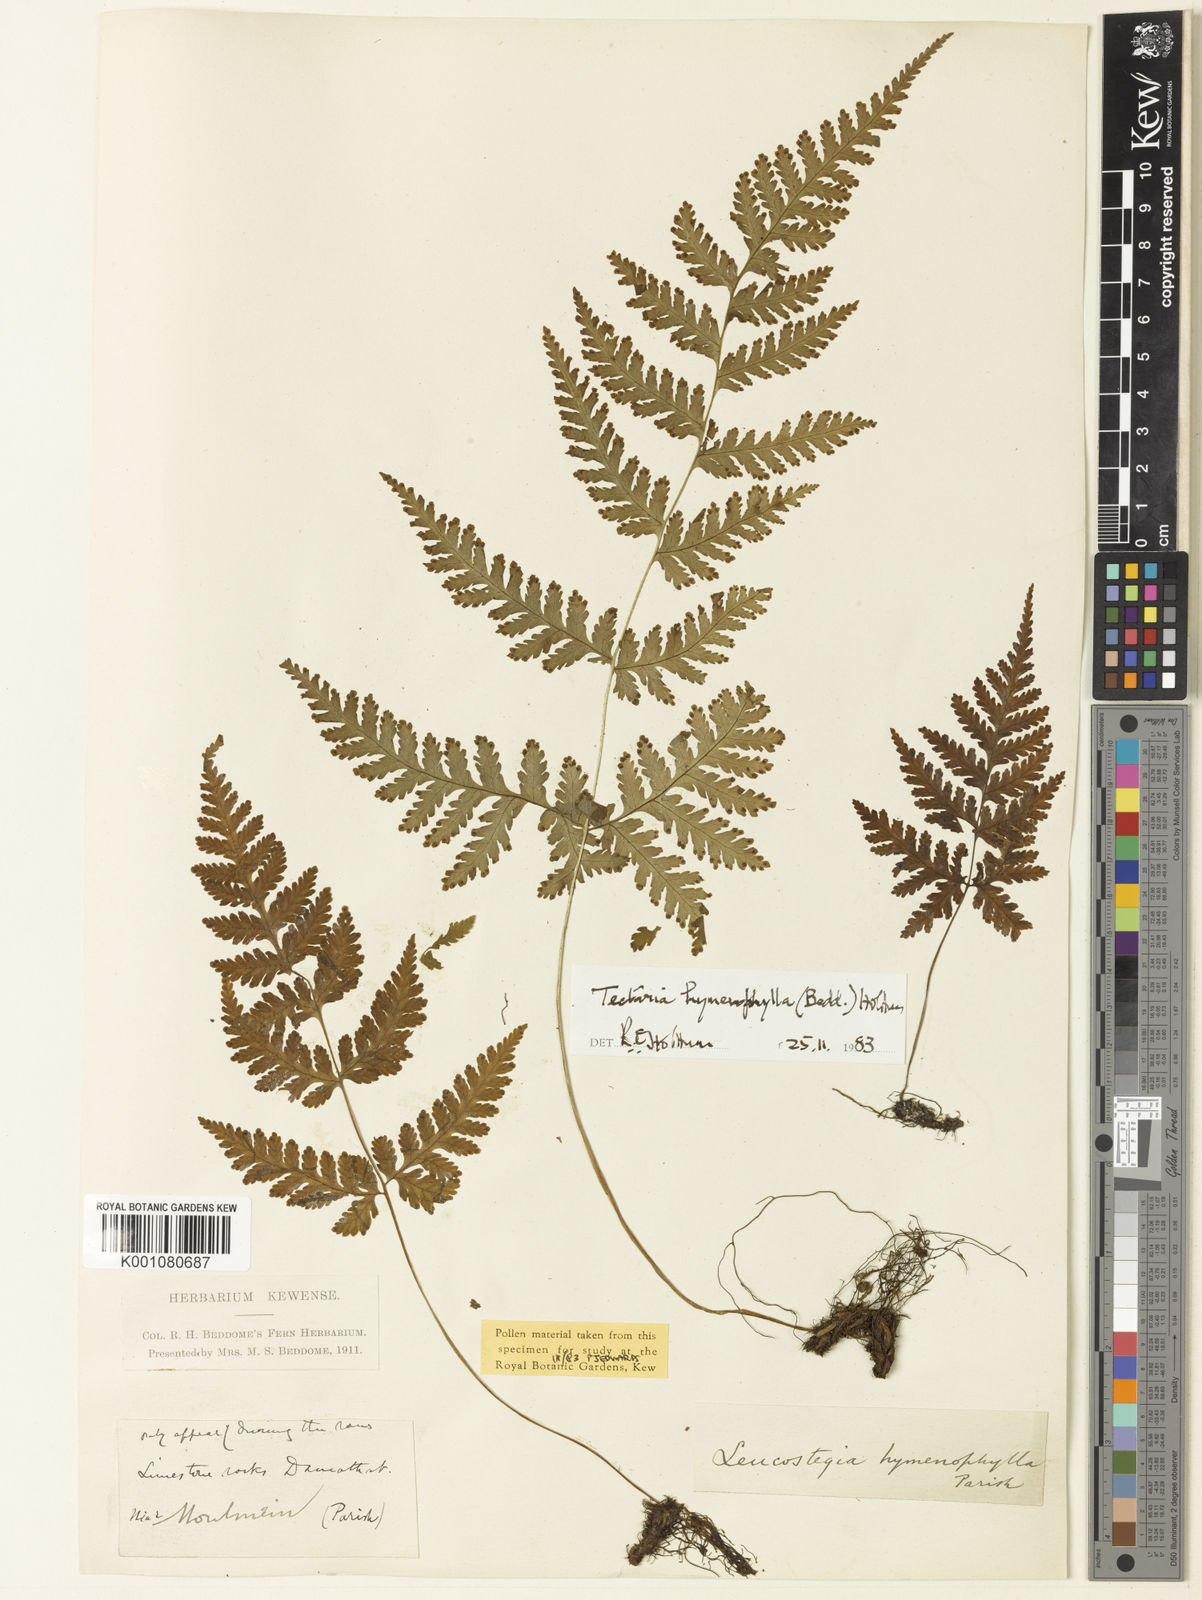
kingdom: Plantae
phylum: Tracheophyta
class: Polypodiopsida
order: Polypodiales
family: Tectariaceae
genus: Tectaria
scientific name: Tectaria hymenophylla
